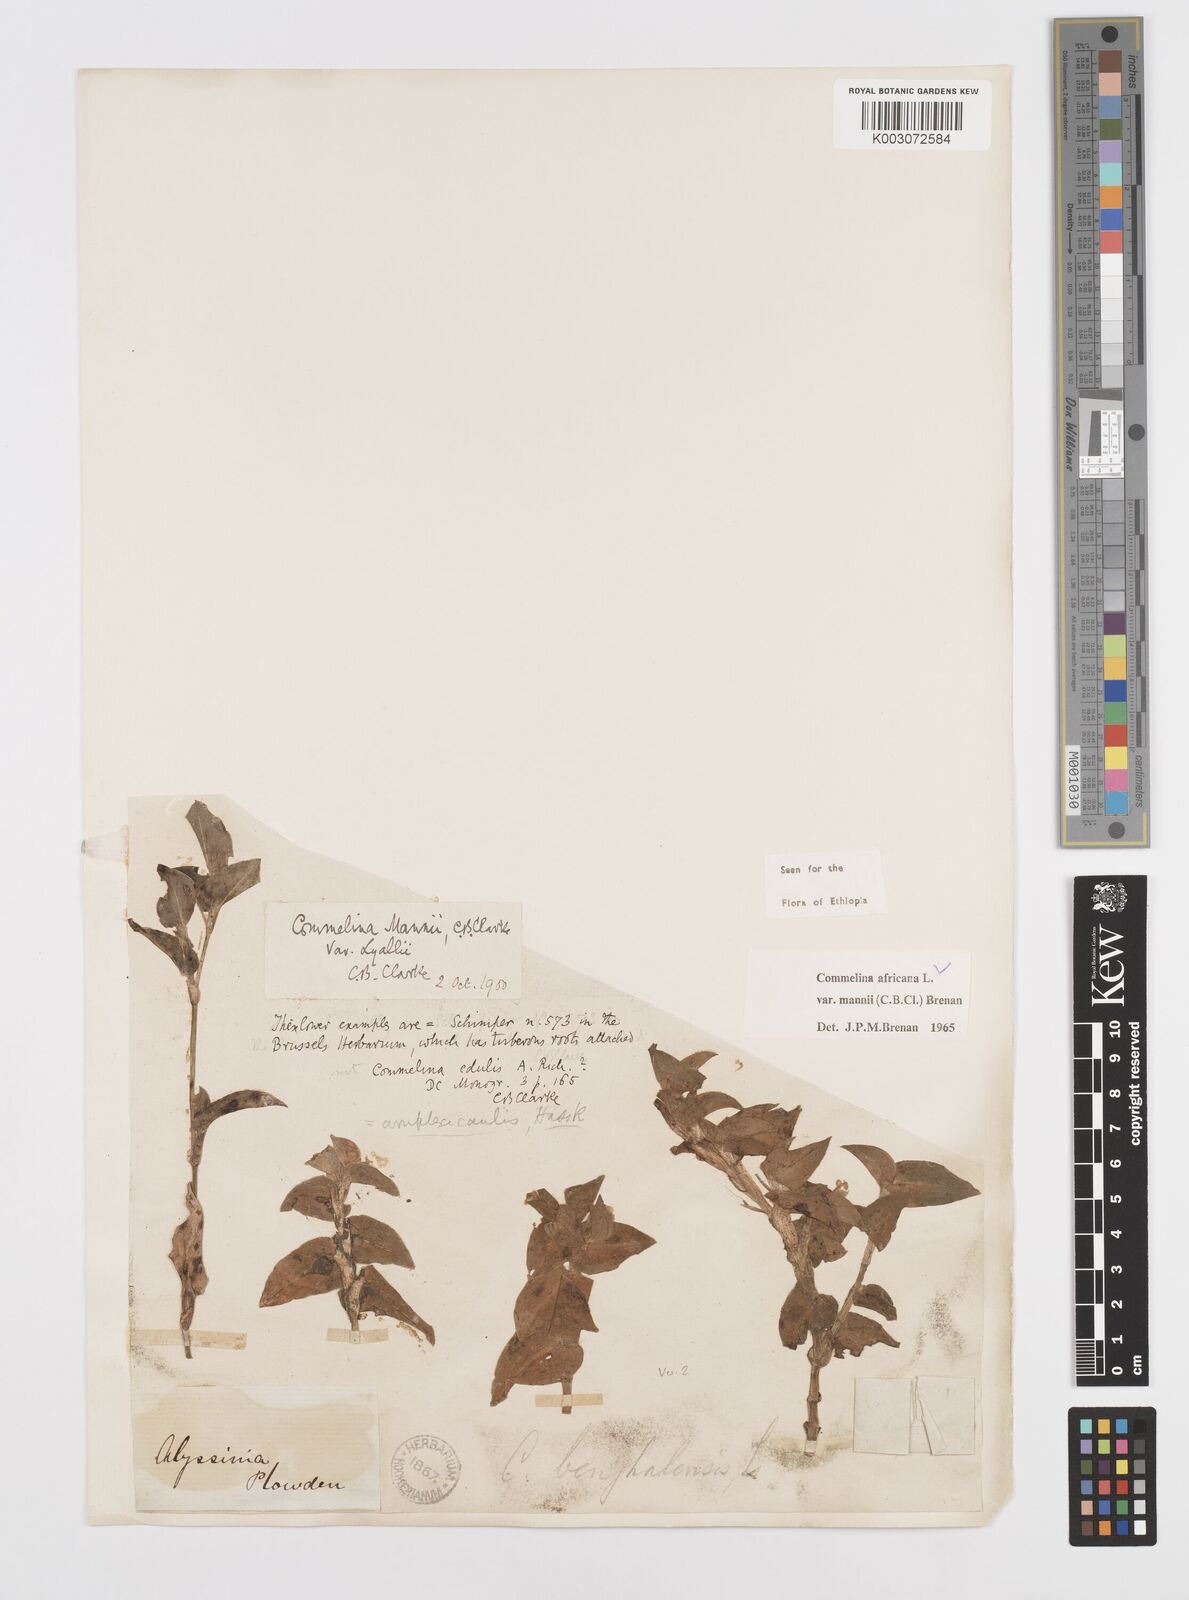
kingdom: Plantae
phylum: Tracheophyta
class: Liliopsida
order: Commelinales
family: Commelinaceae
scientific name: Commelinaceae
